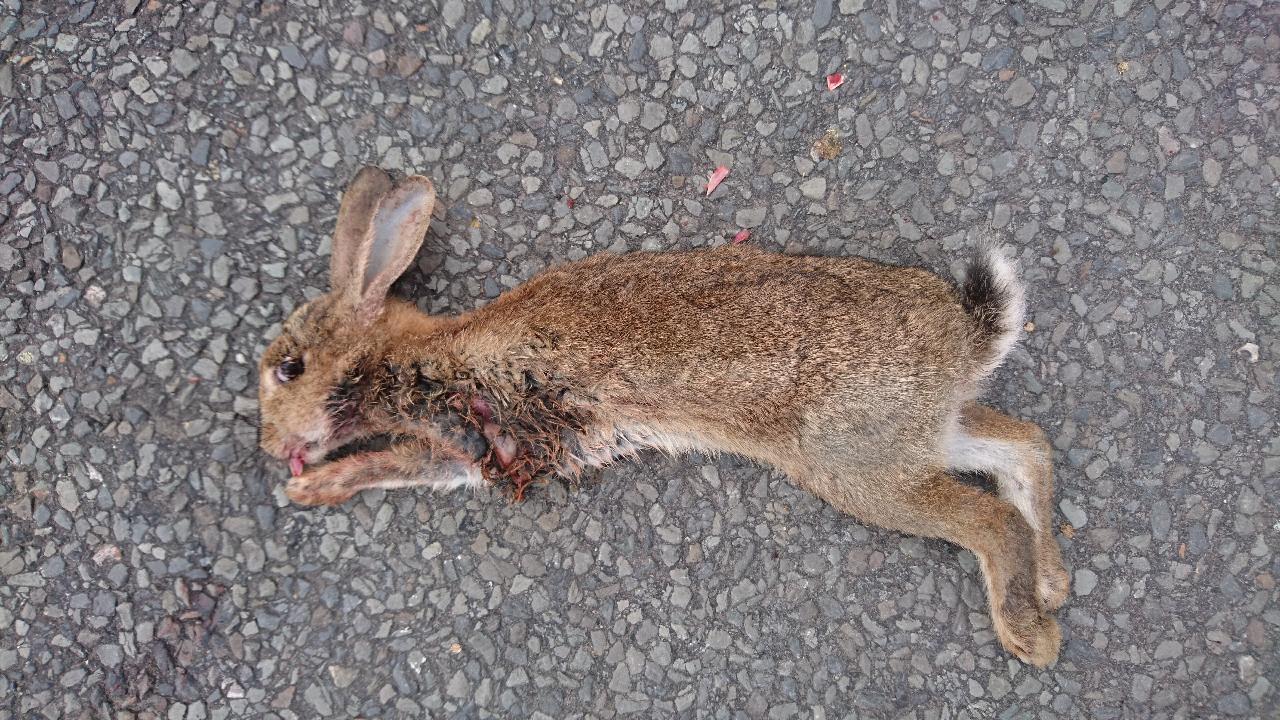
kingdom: Animalia
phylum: Chordata
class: Mammalia
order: Lagomorpha
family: Leporidae
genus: Oryctolagus
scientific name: Oryctolagus cuniculus
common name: European rabbit
